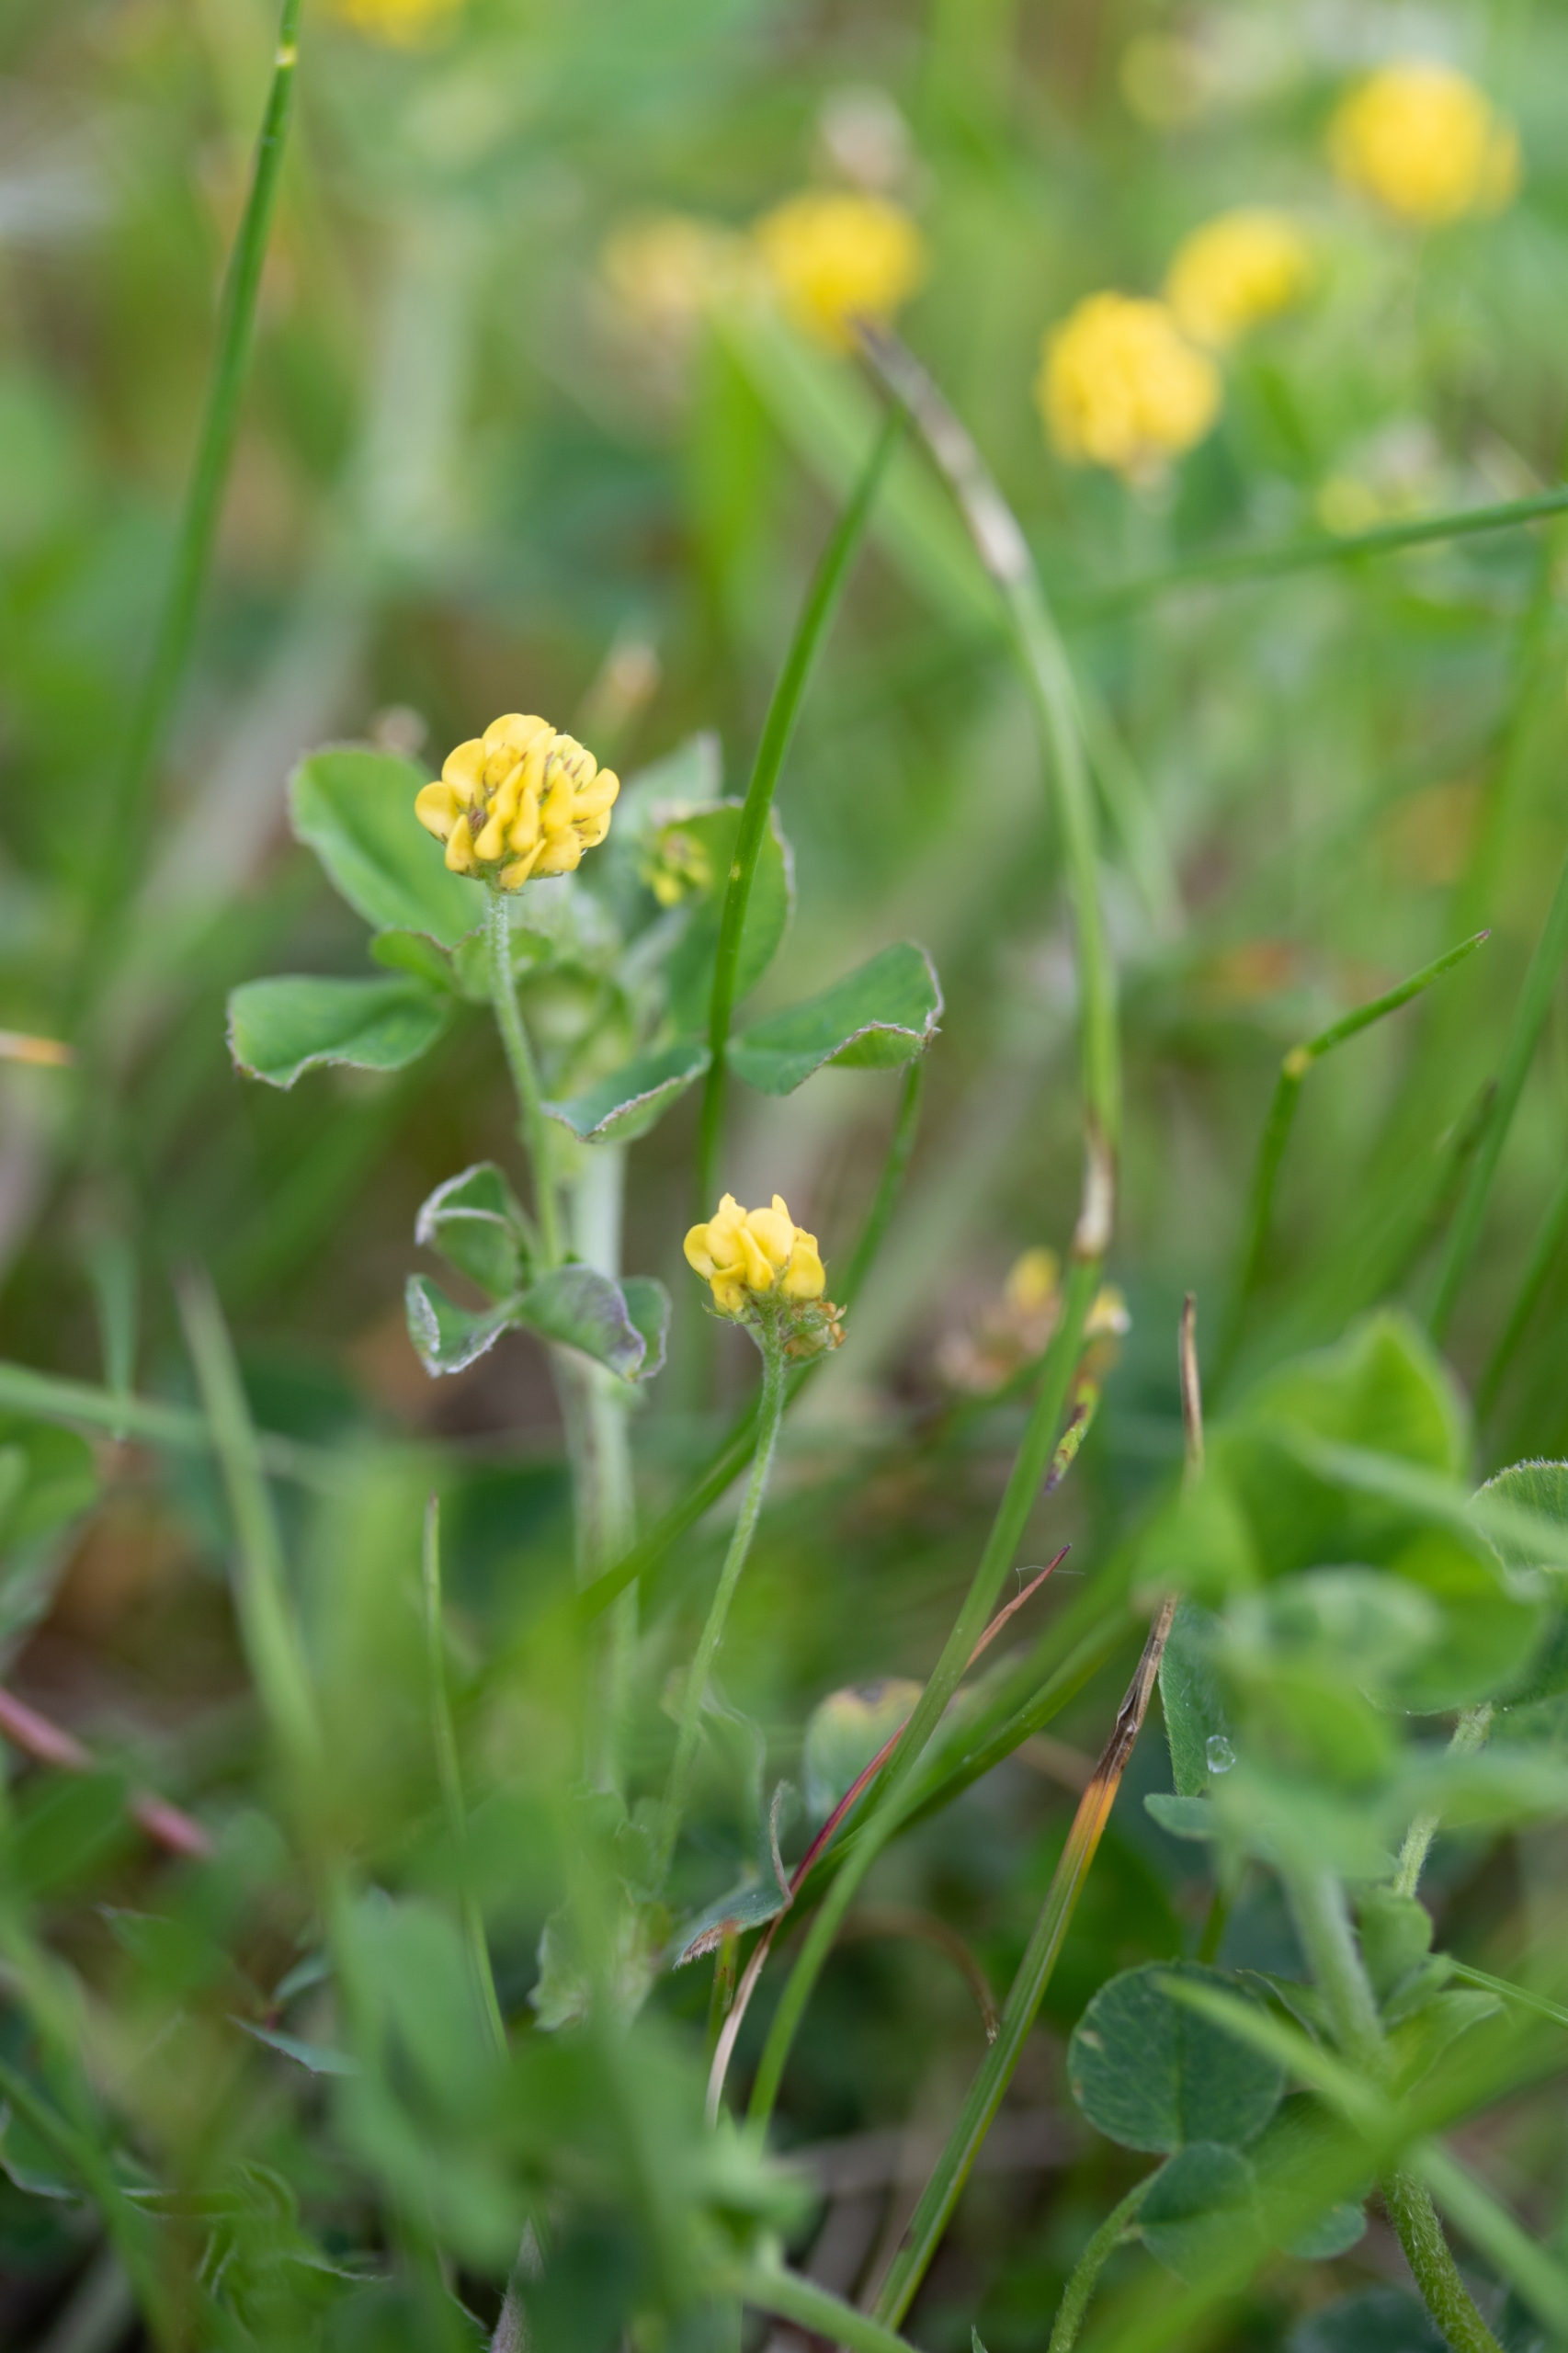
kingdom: Plantae
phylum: Tracheophyta
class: Magnoliopsida
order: Fabales
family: Fabaceae
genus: Medicago
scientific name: Medicago lupulina
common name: Humle-sneglebælg
